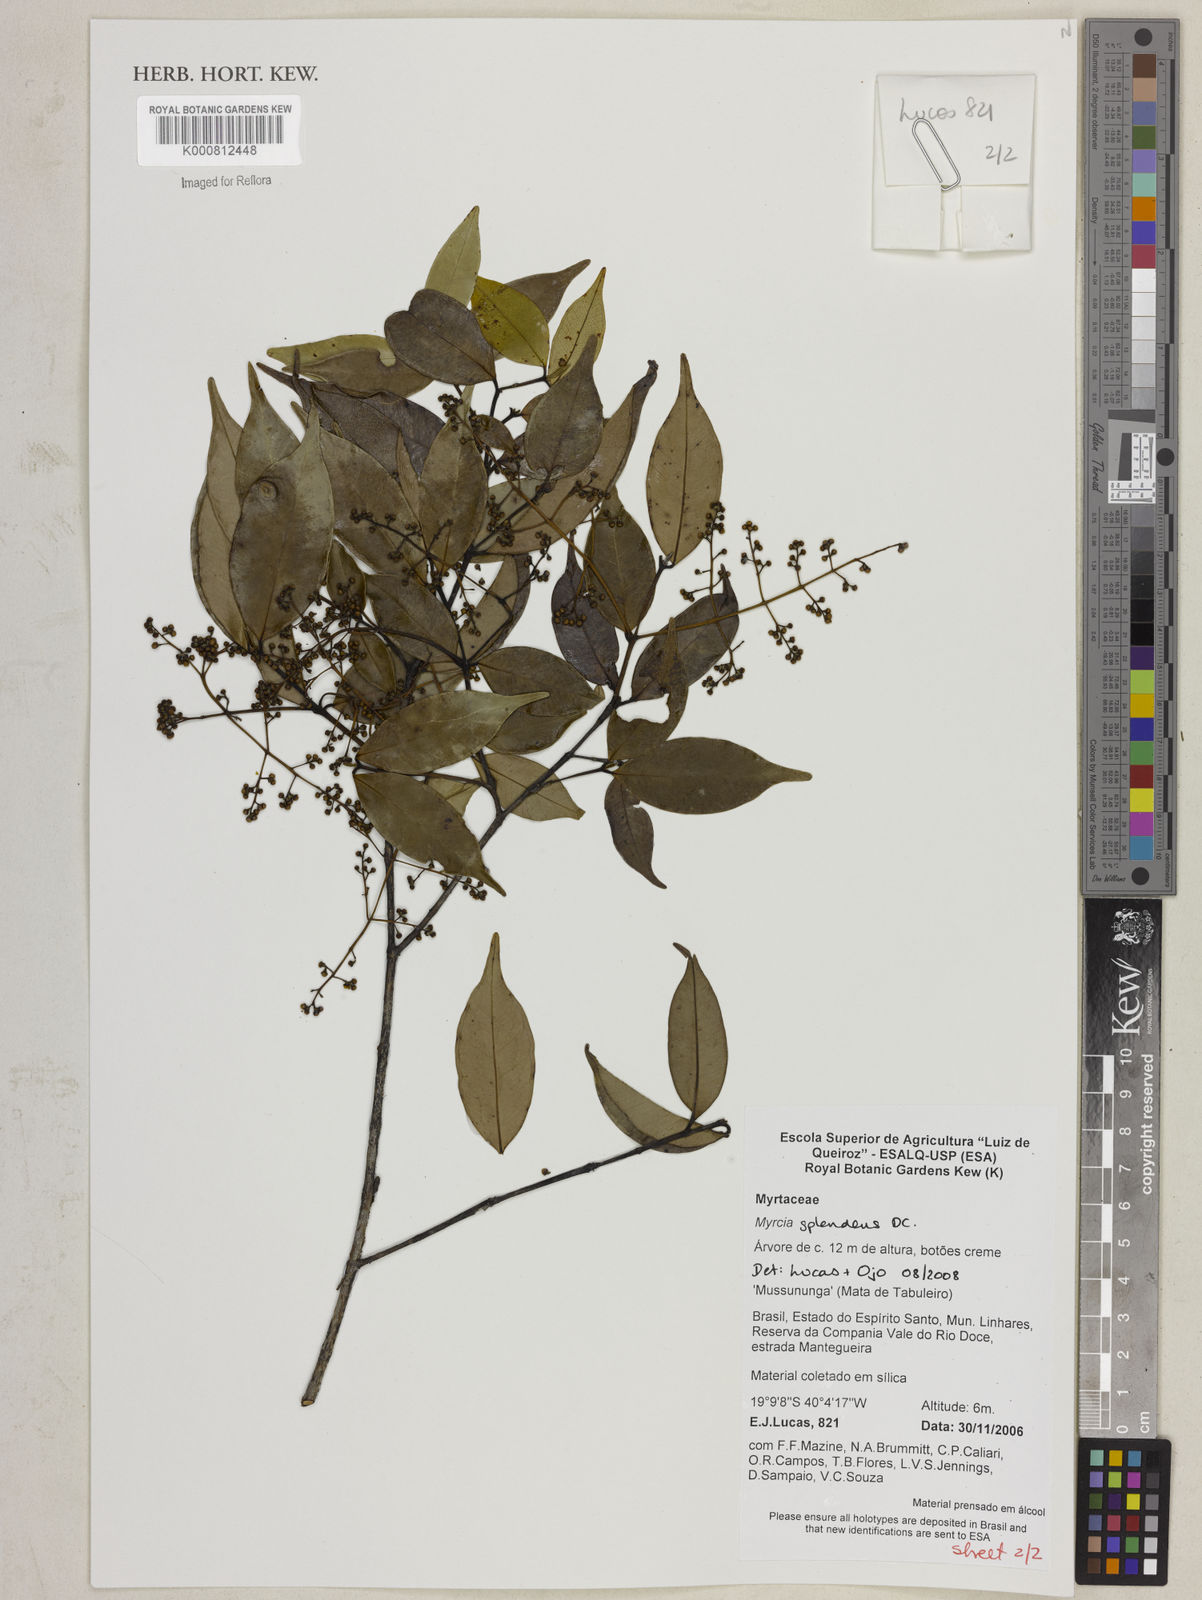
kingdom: Plantae
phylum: Tracheophyta
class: Magnoliopsida
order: Myrtales
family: Myrtaceae
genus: Myrcia
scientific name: Myrcia splendens
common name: Surinam cherry
